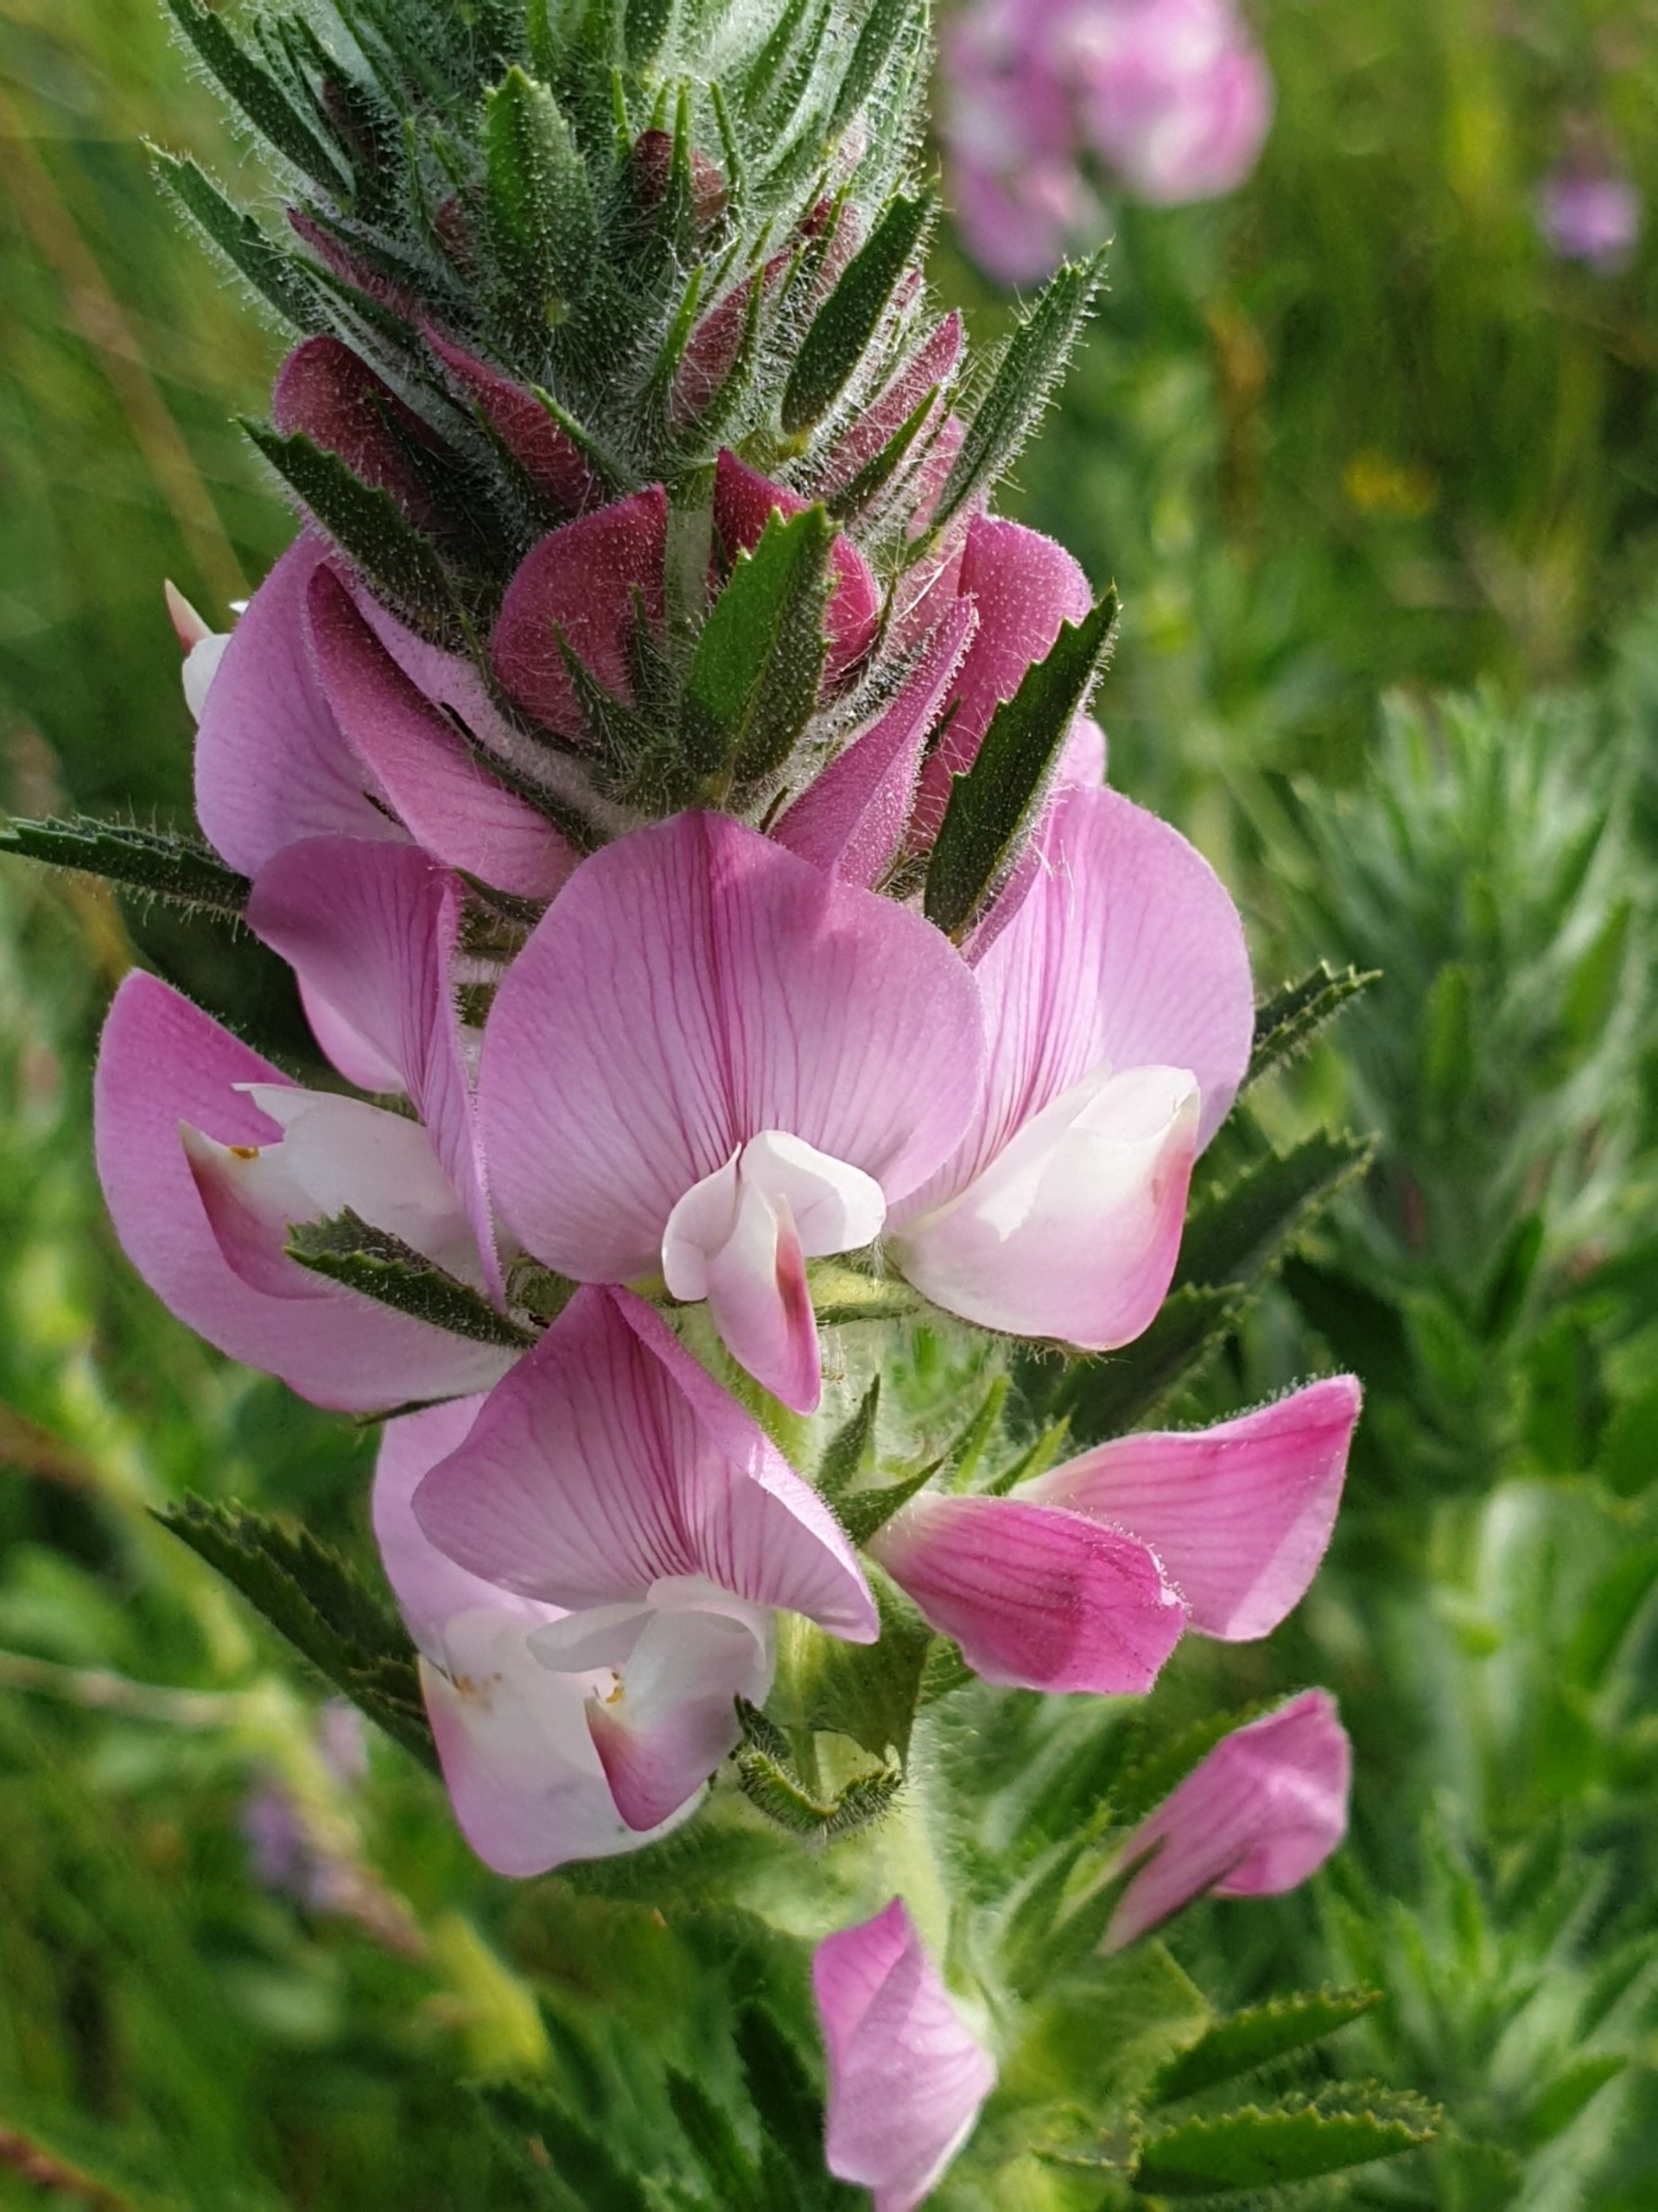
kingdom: Plantae
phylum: Tracheophyta
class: Magnoliopsida
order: Fabales
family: Fabaceae
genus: Ononis
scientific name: Ononis spinosa
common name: Krageklo
